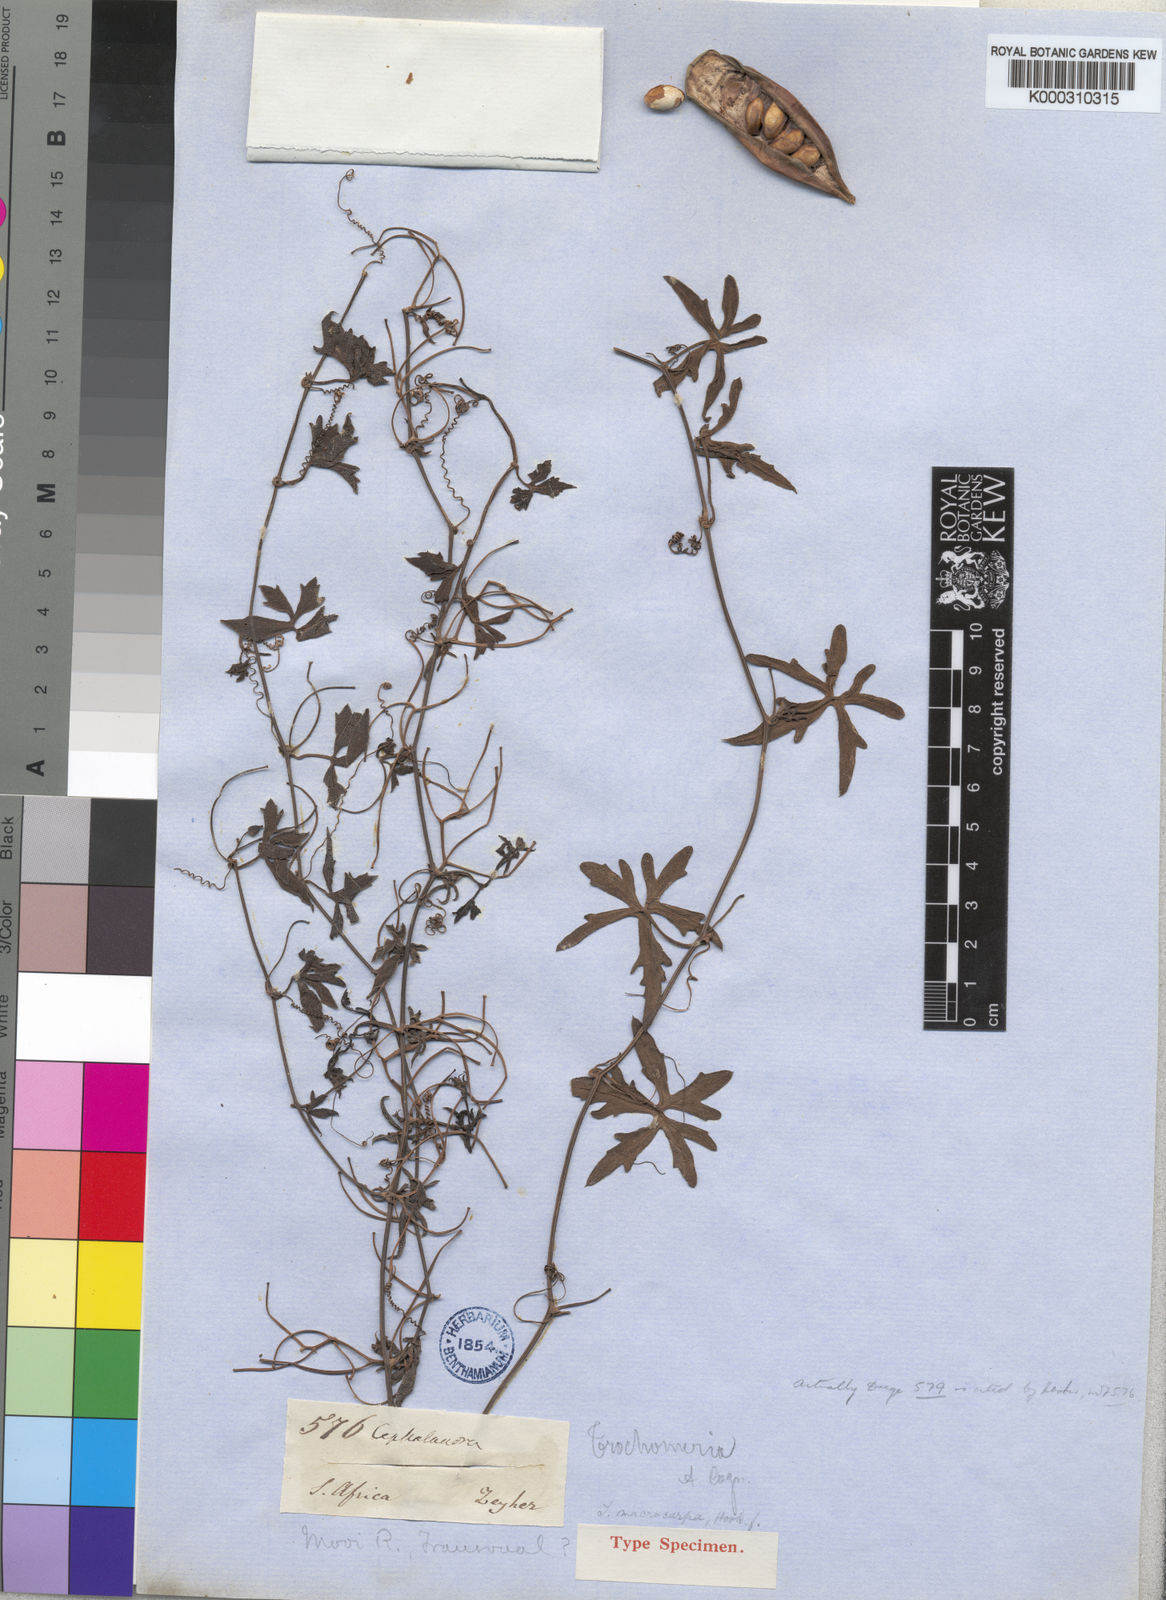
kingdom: Plantae
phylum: Tracheophyta
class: Magnoliopsida
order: Cucurbitales
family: Cucurbitaceae
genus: Trochomeria
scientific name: Trochomeria macrocarpa
